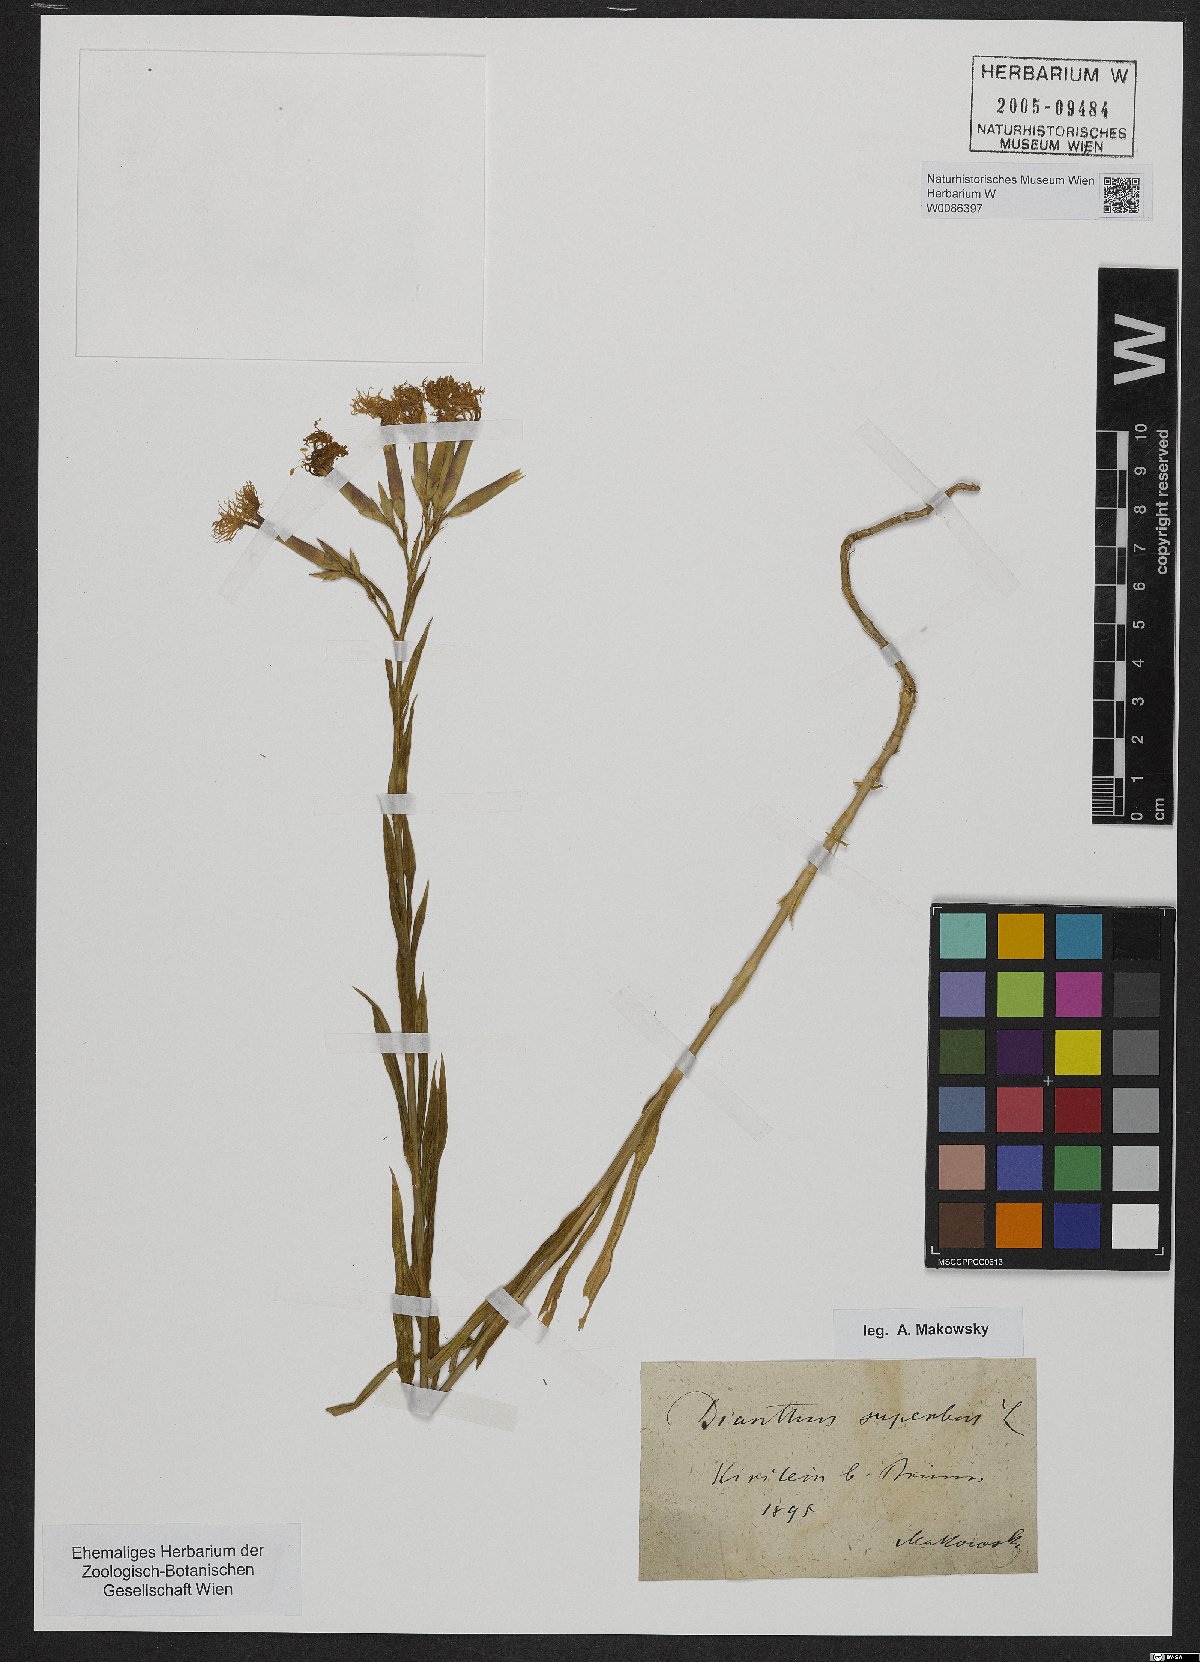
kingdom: Plantae
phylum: Tracheophyta
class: Magnoliopsida
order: Caryophyllales
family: Caryophyllaceae
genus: Dianthus
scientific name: Dianthus superbus
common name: Fringed pink
